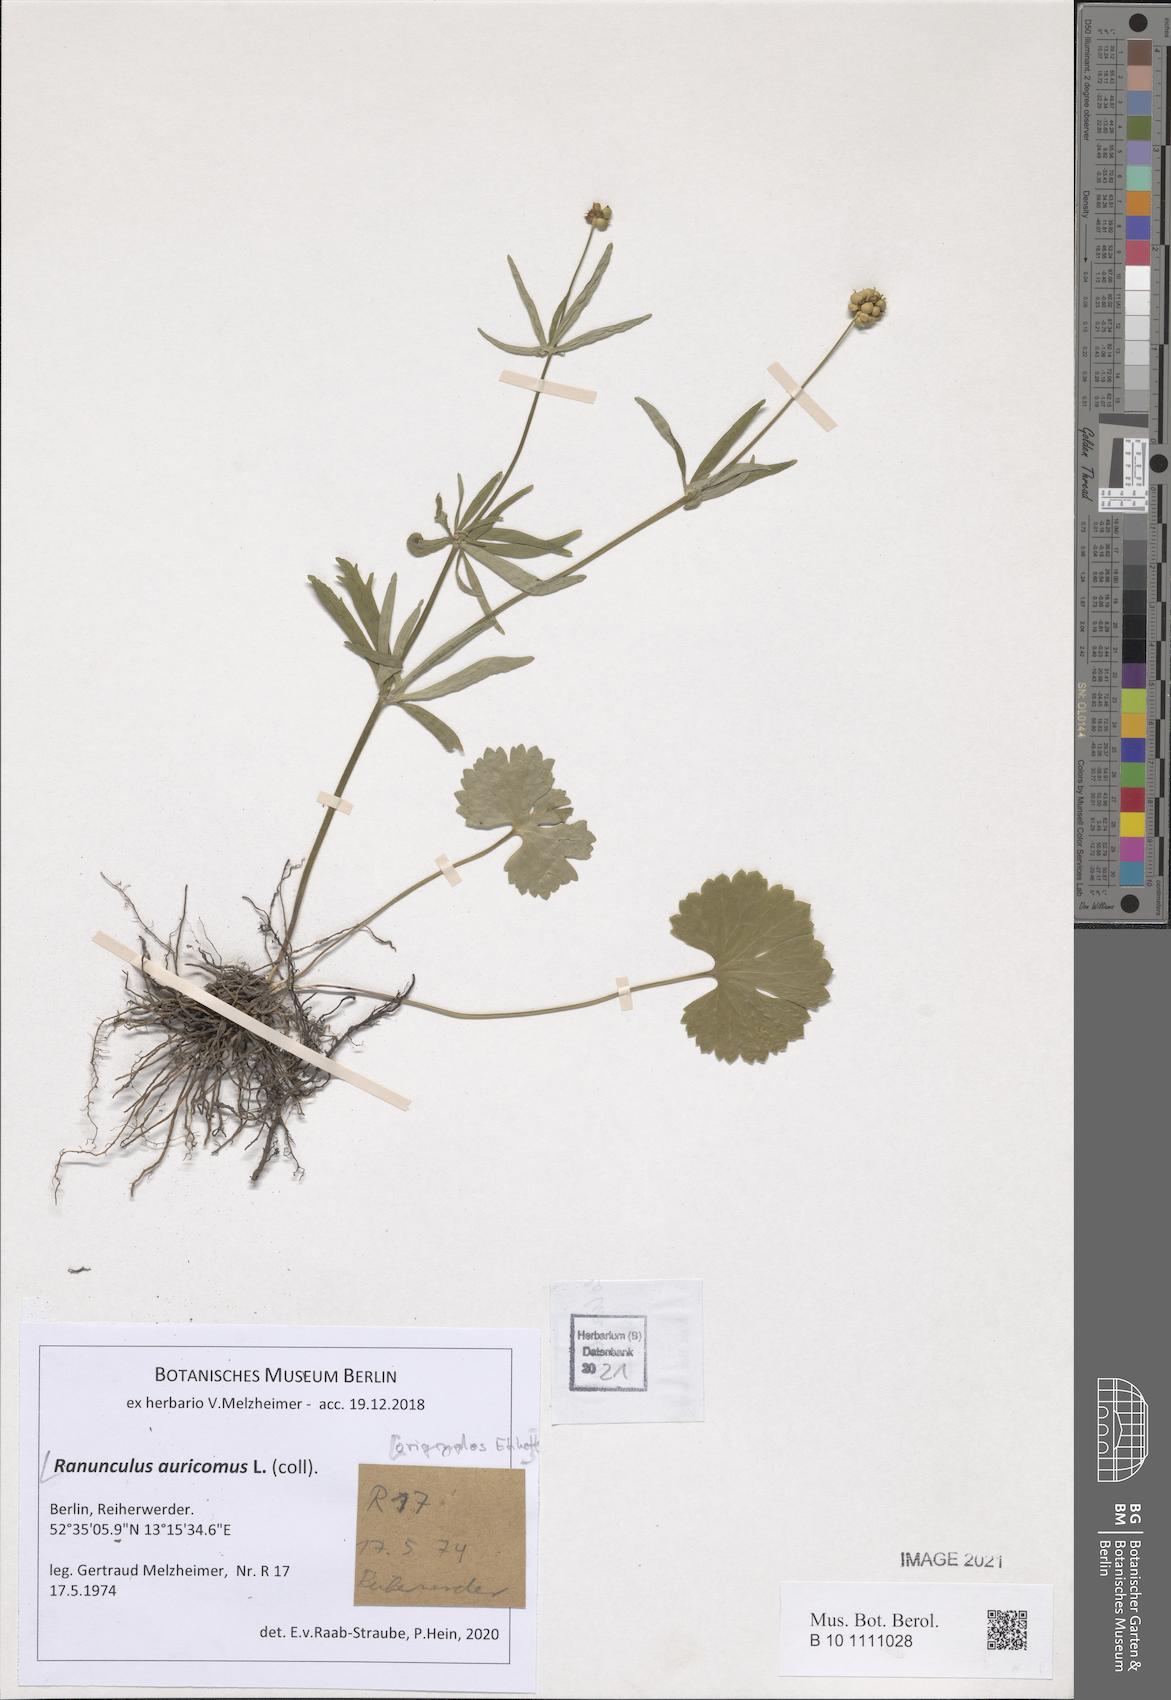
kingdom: Plantae
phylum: Tracheophyta
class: Magnoliopsida
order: Ranunculales
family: Ranunculaceae
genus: Ranunculus
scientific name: Ranunculus auricomus
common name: Goldilocks buttercup
